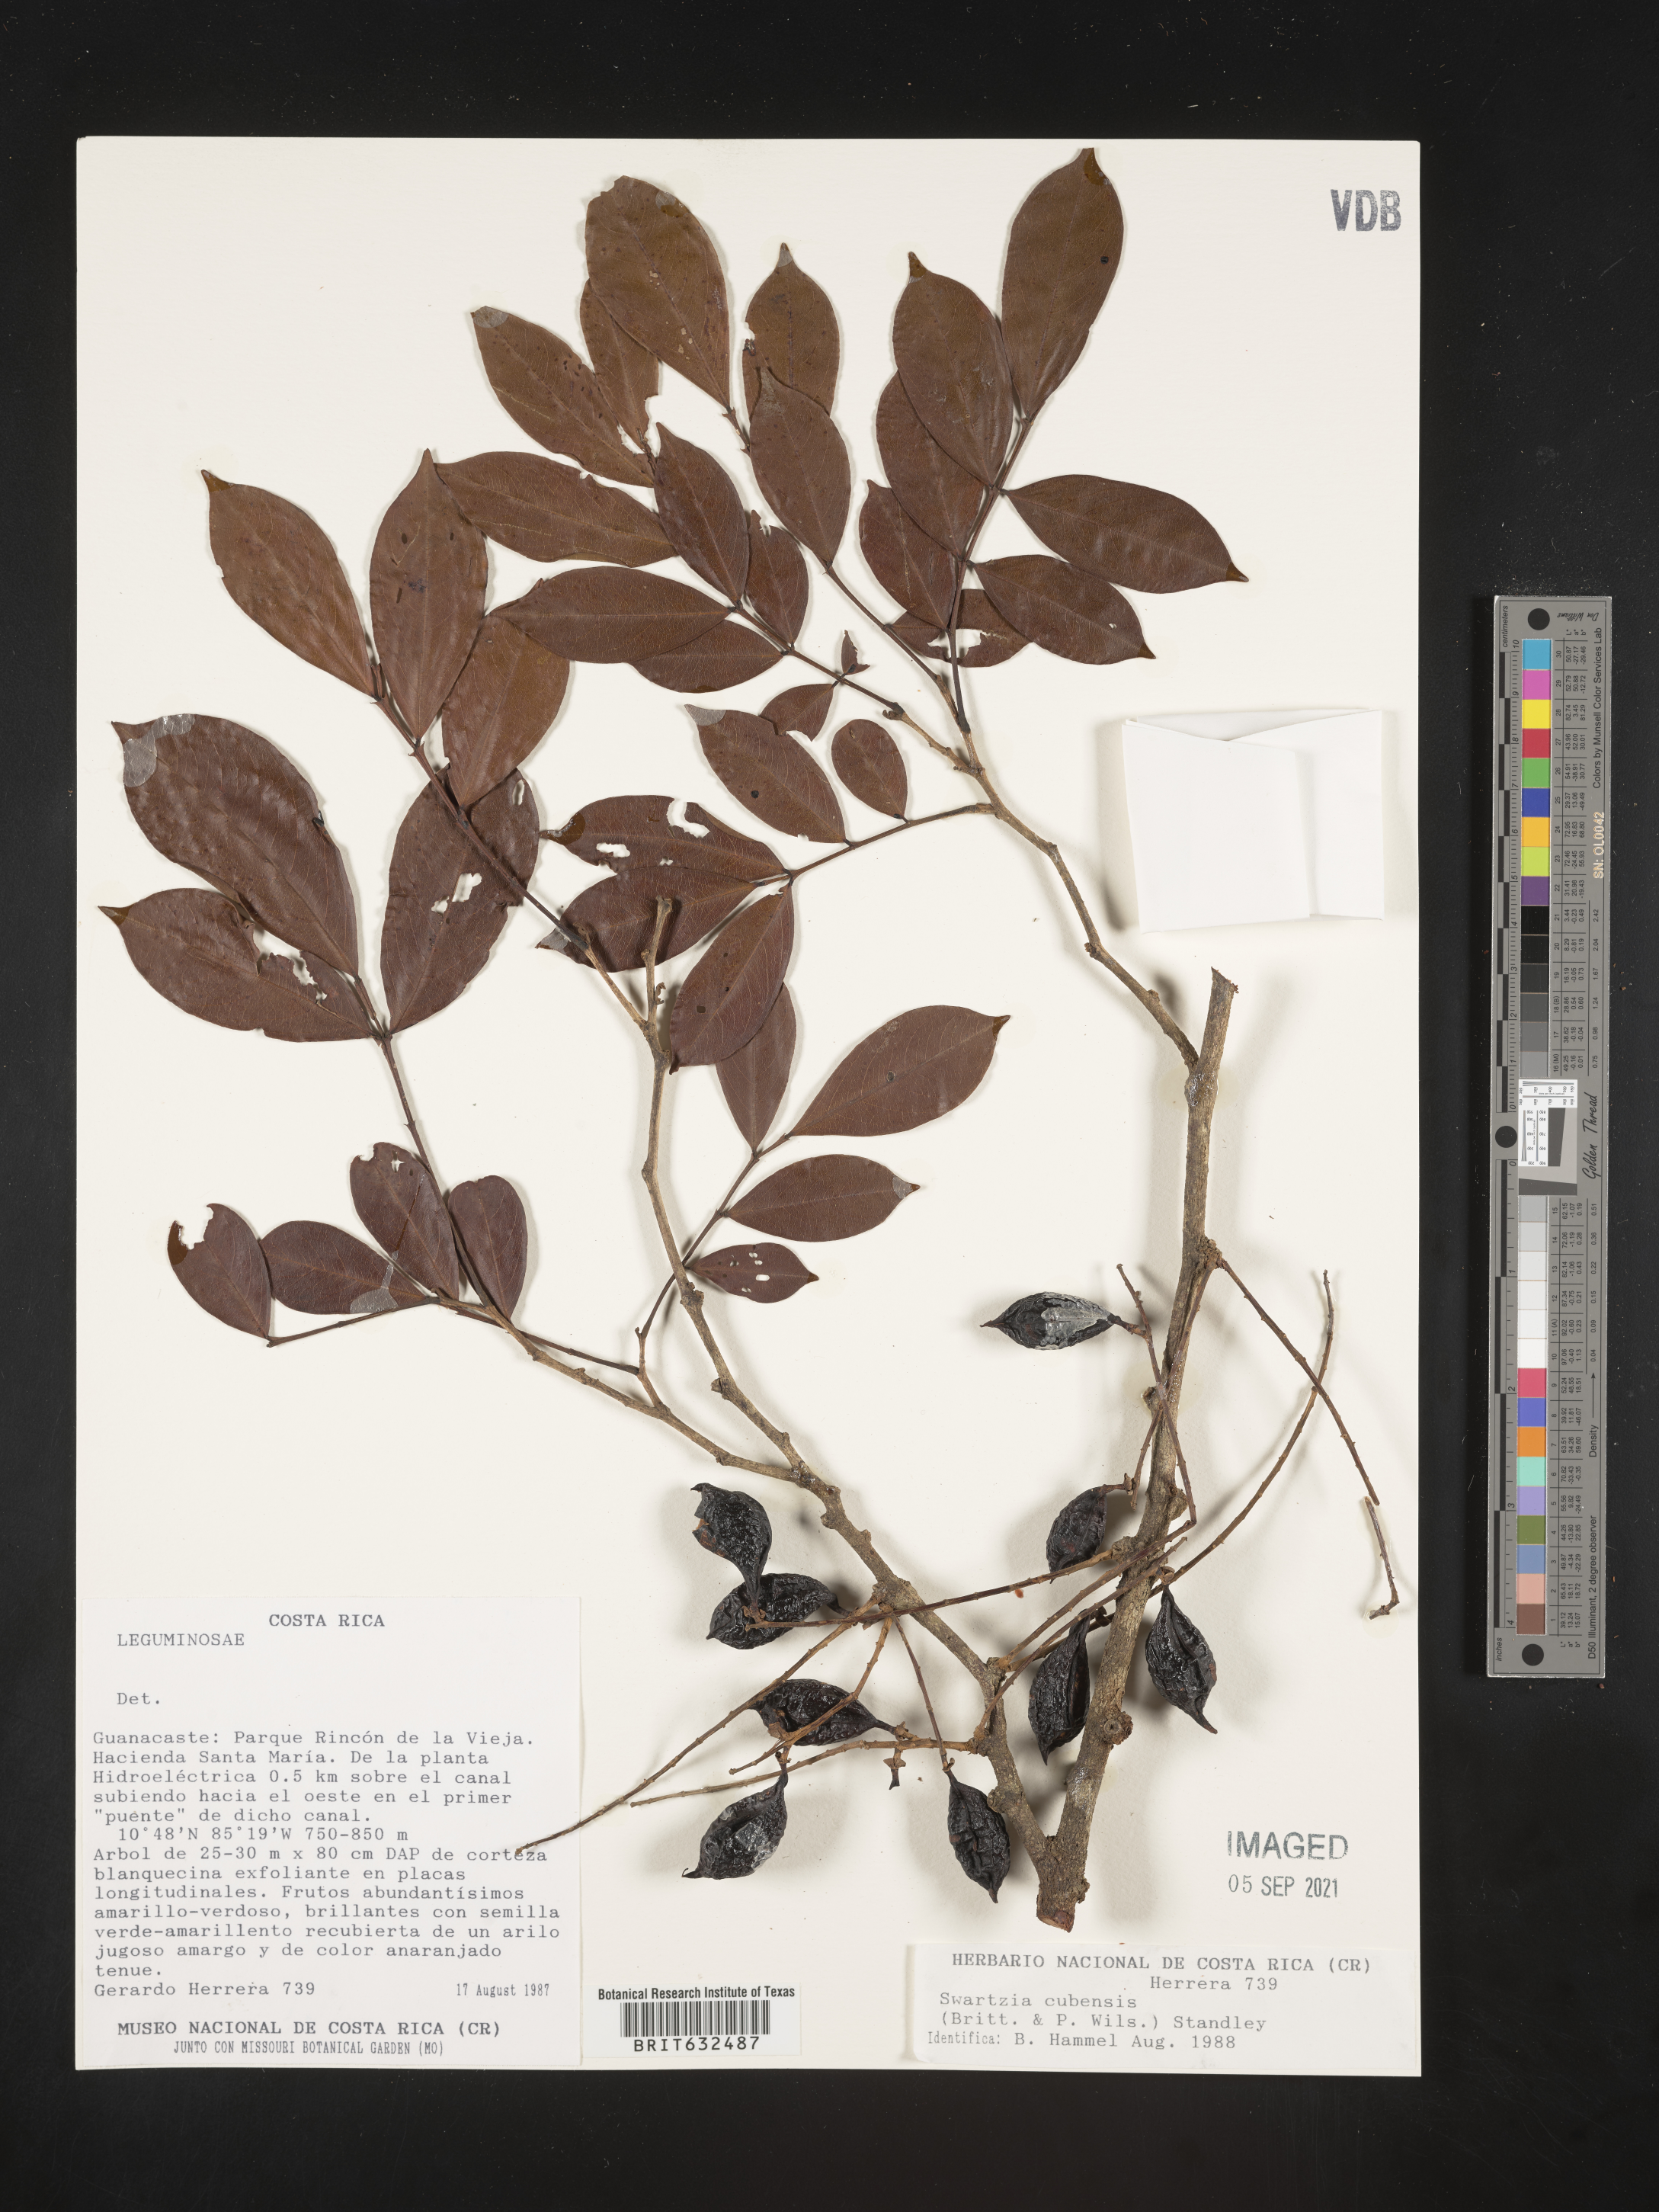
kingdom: Plantae
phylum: Tracheophyta
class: Magnoliopsida
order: Fabales
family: Fabaceae
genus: Swartzia
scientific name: Swartzia
